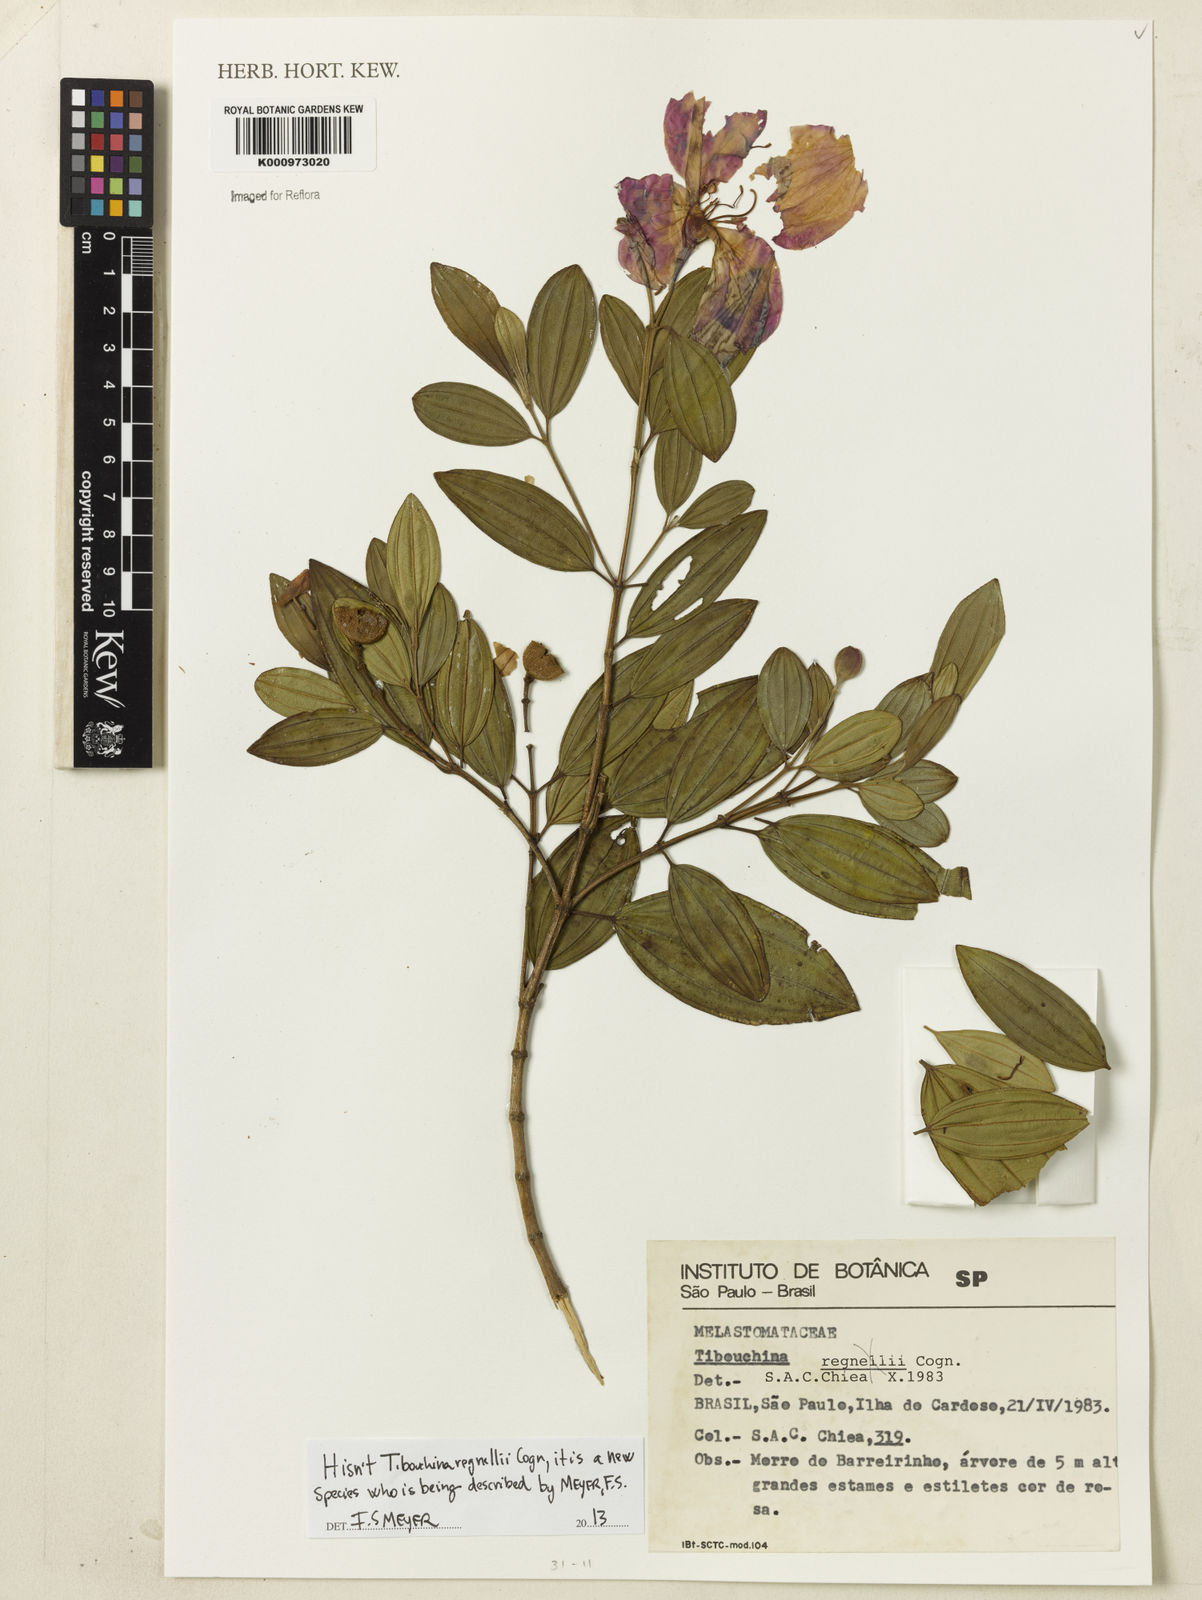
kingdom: Plantae
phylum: Tracheophyta
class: Magnoliopsida
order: Myrtales
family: Melastomataceae
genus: Tibouchina
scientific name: Tibouchina
